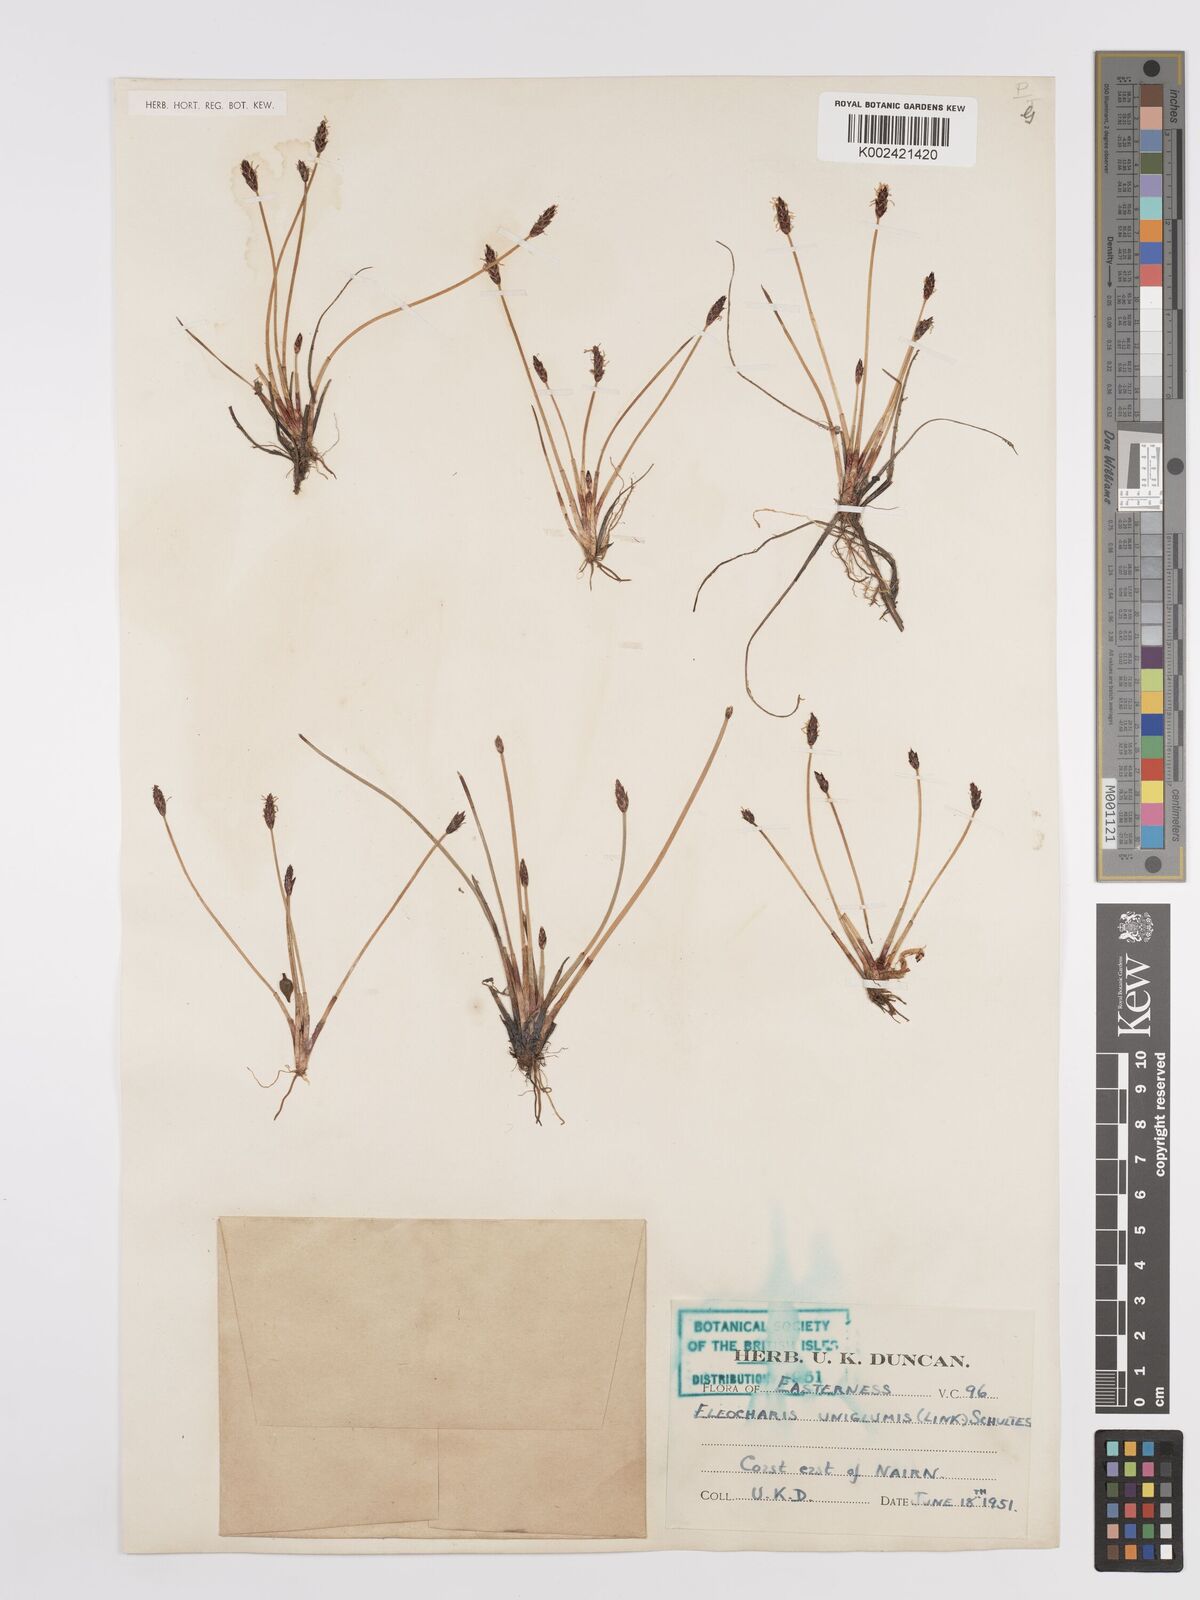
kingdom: Plantae
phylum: Tracheophyta
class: Liliopsida
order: Poales
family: Cyperaceae
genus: Eleocharis
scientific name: Eleocharis uniglumis
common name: Slender spike-rush
